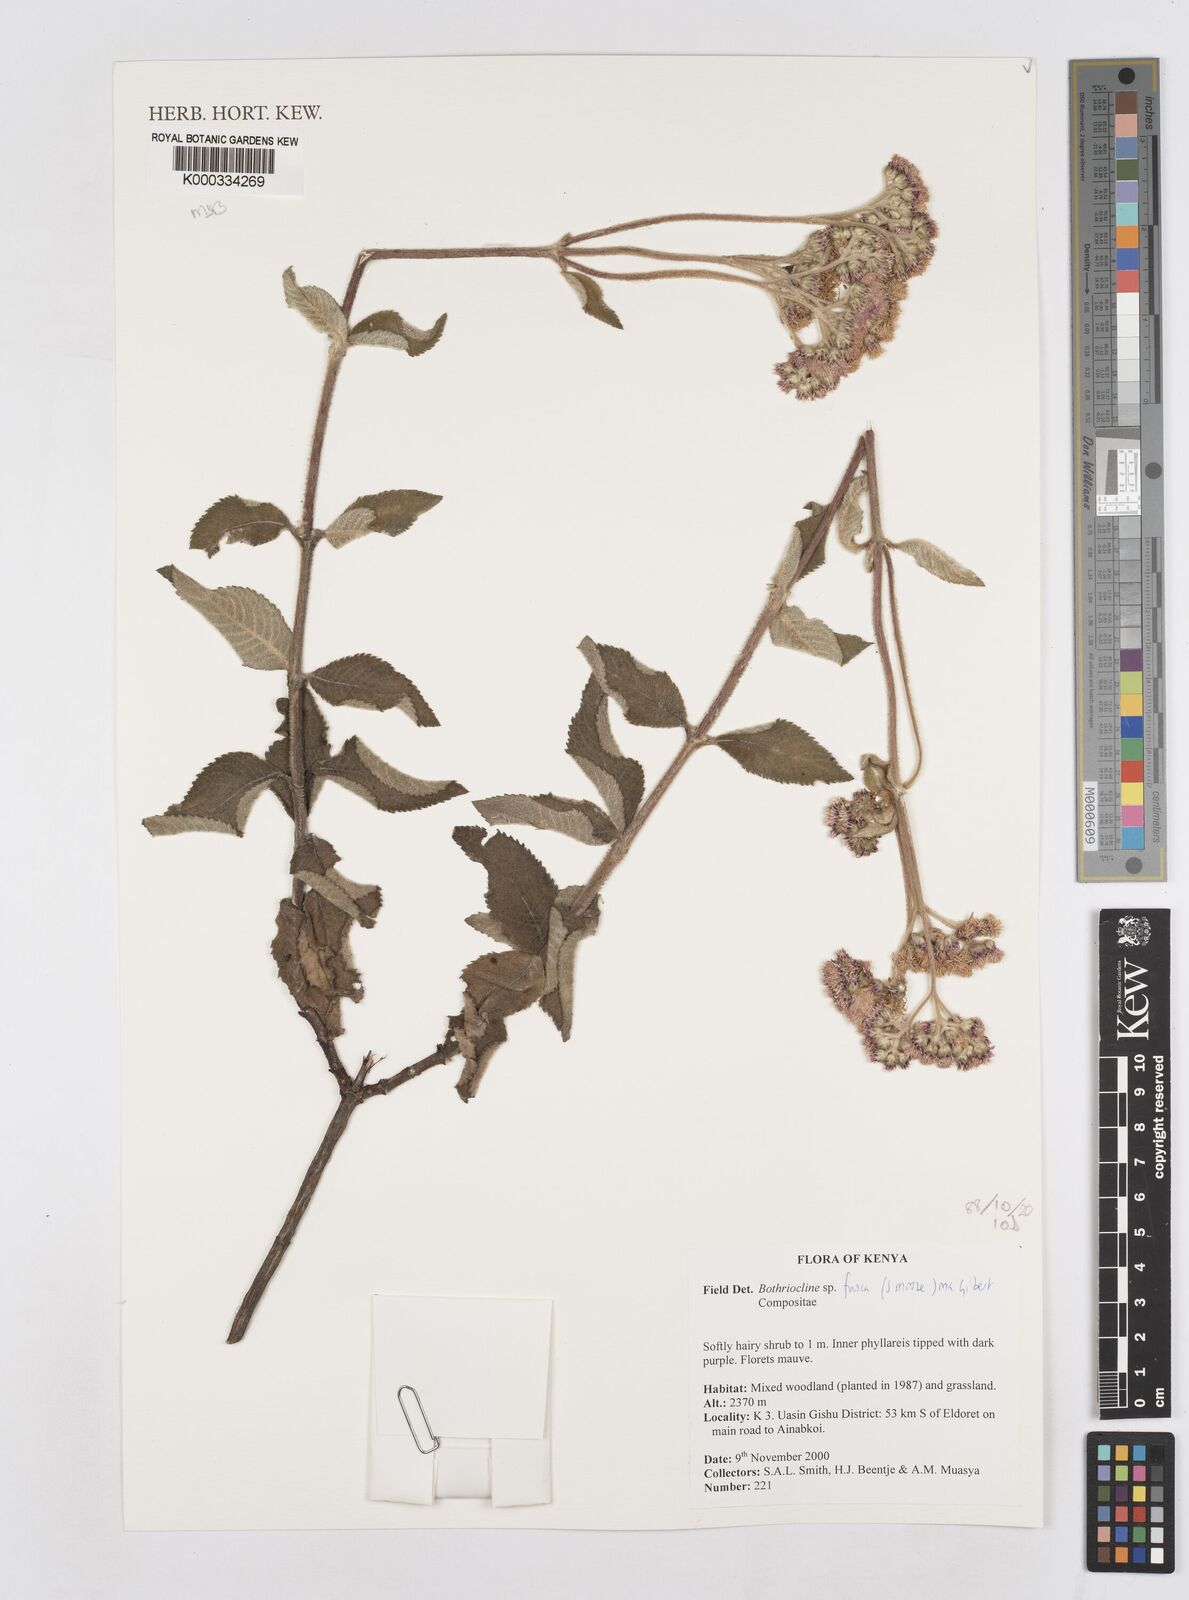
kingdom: Plantae
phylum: Tracheophyta
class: Magnoliopsida
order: Asterales
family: Asteraceae
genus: Bothriocline
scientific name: Bothriocline fusca
